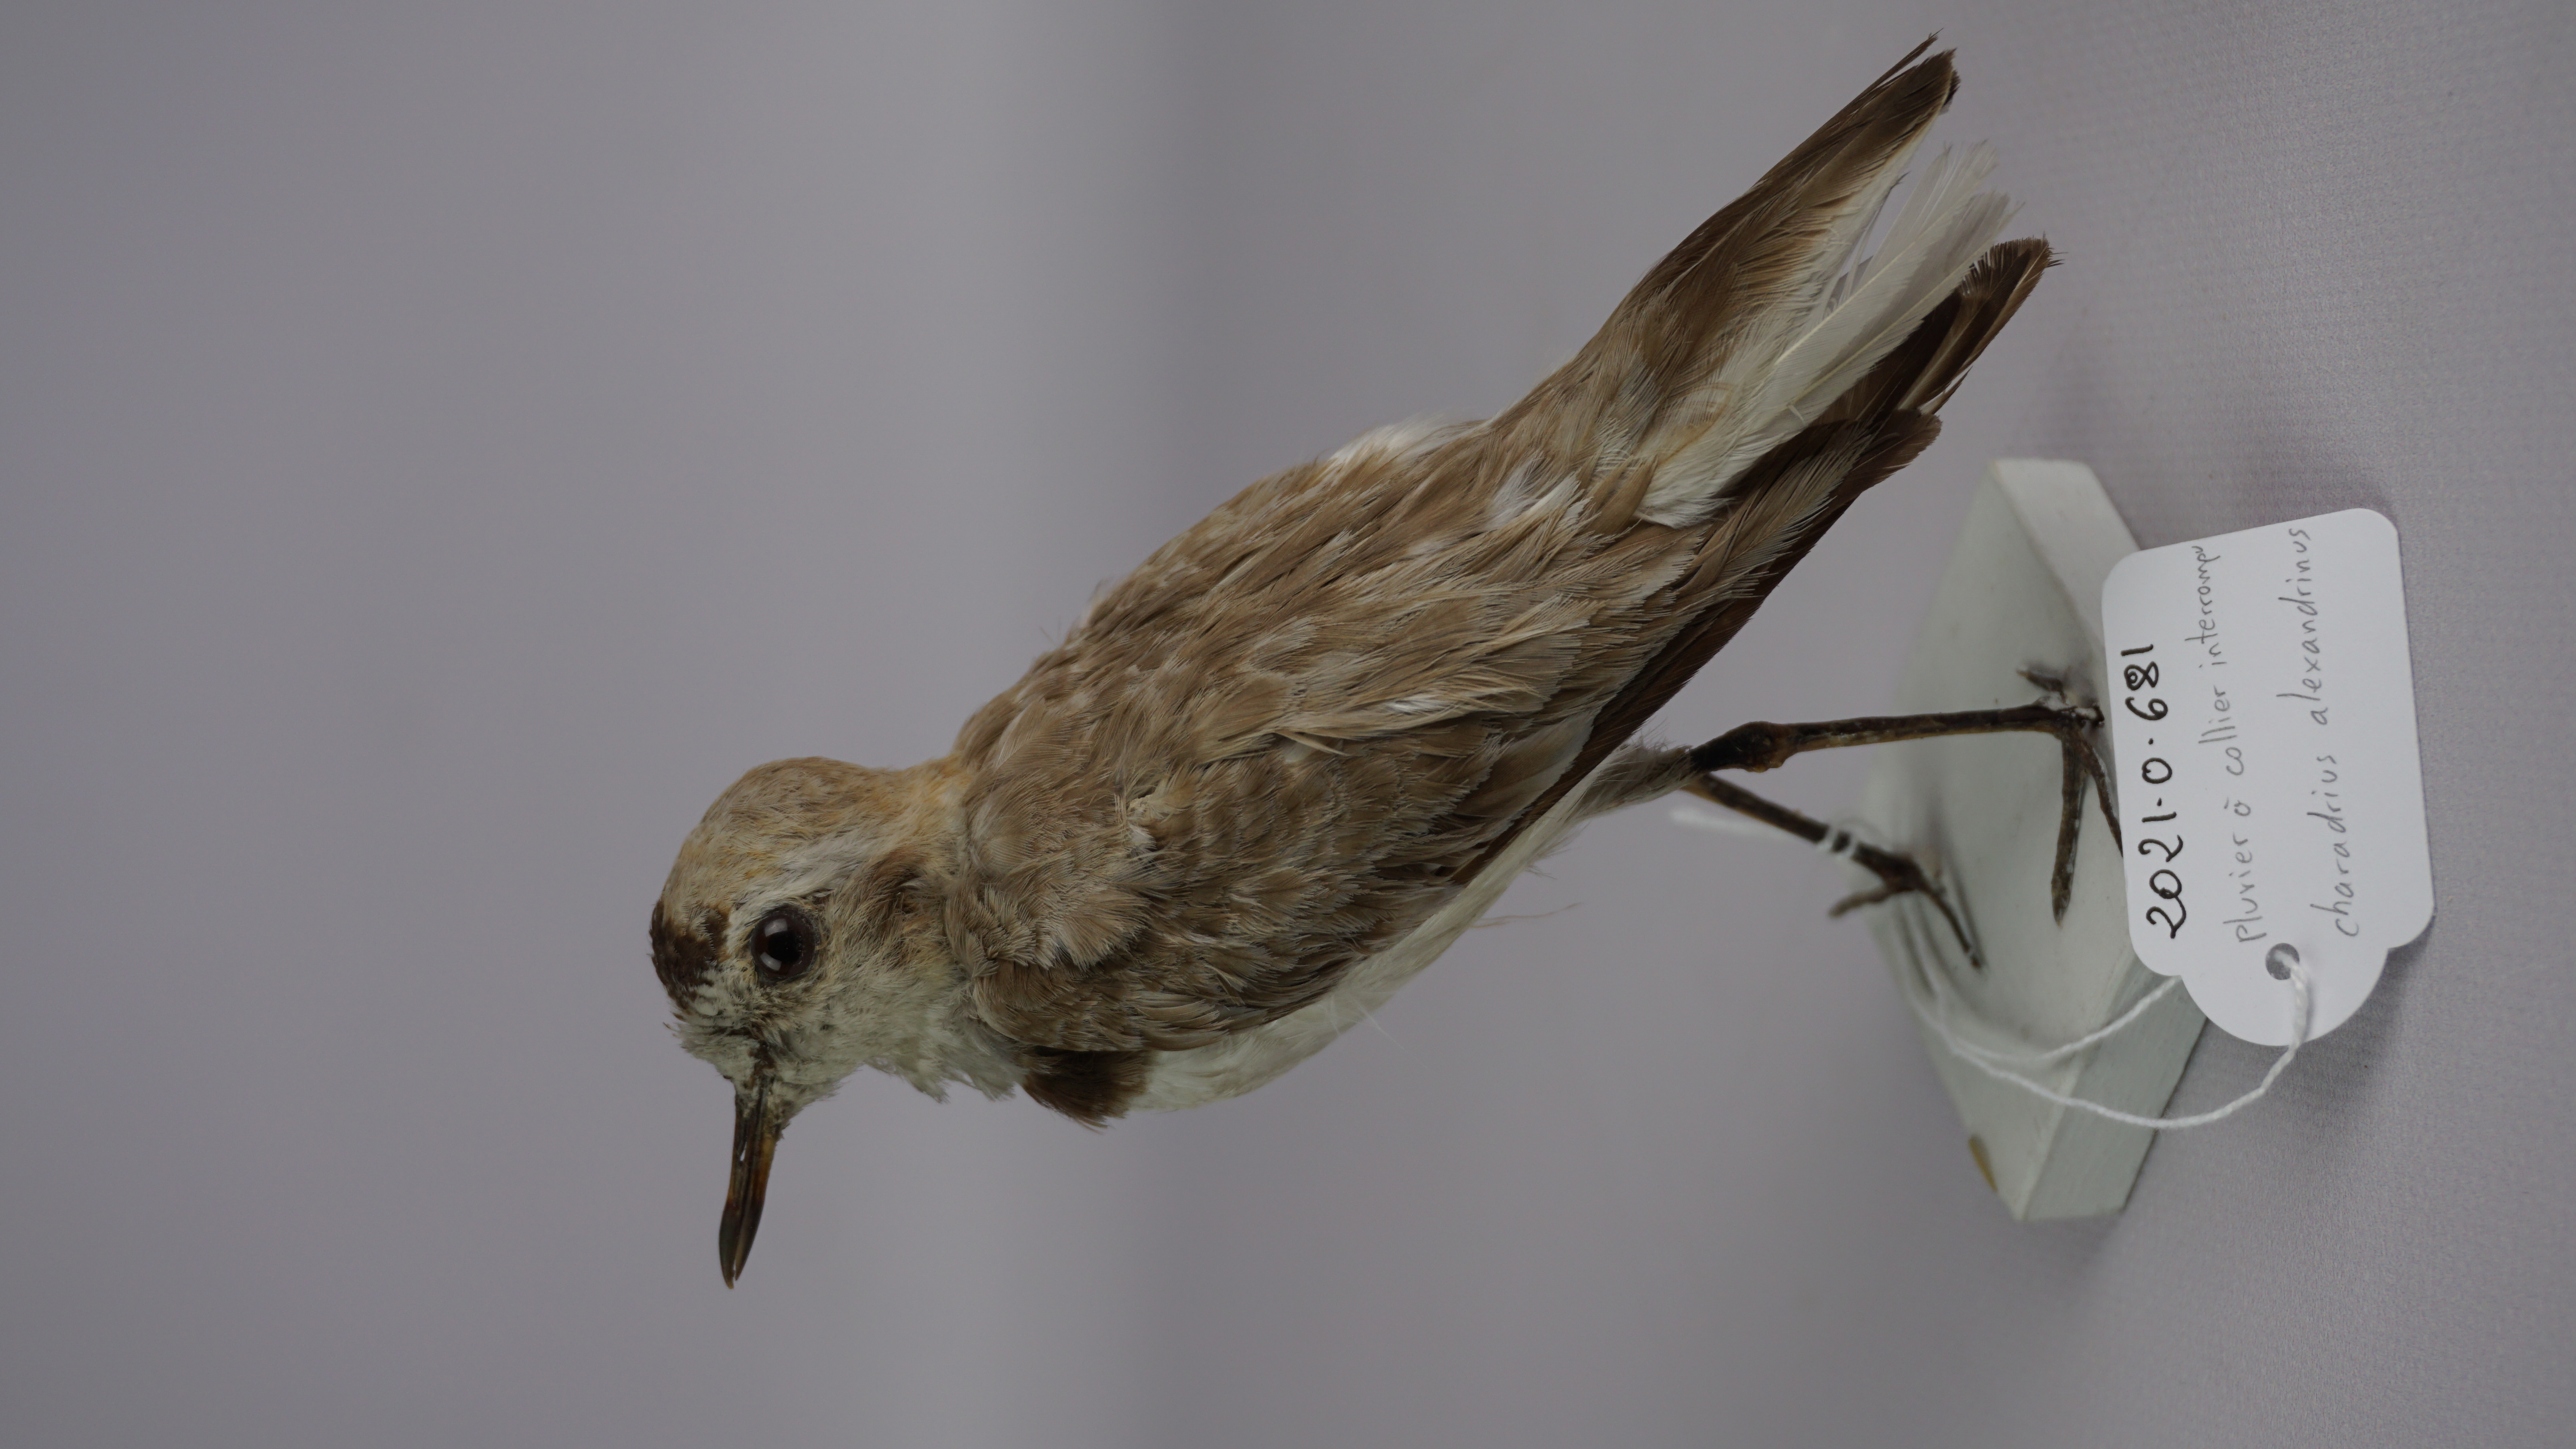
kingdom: Animalia
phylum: Chordata
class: Aves
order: Charadriiformes
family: Charadriidae
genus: Charadrius
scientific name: Charadrius alexandrinus
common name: Kentish plover
